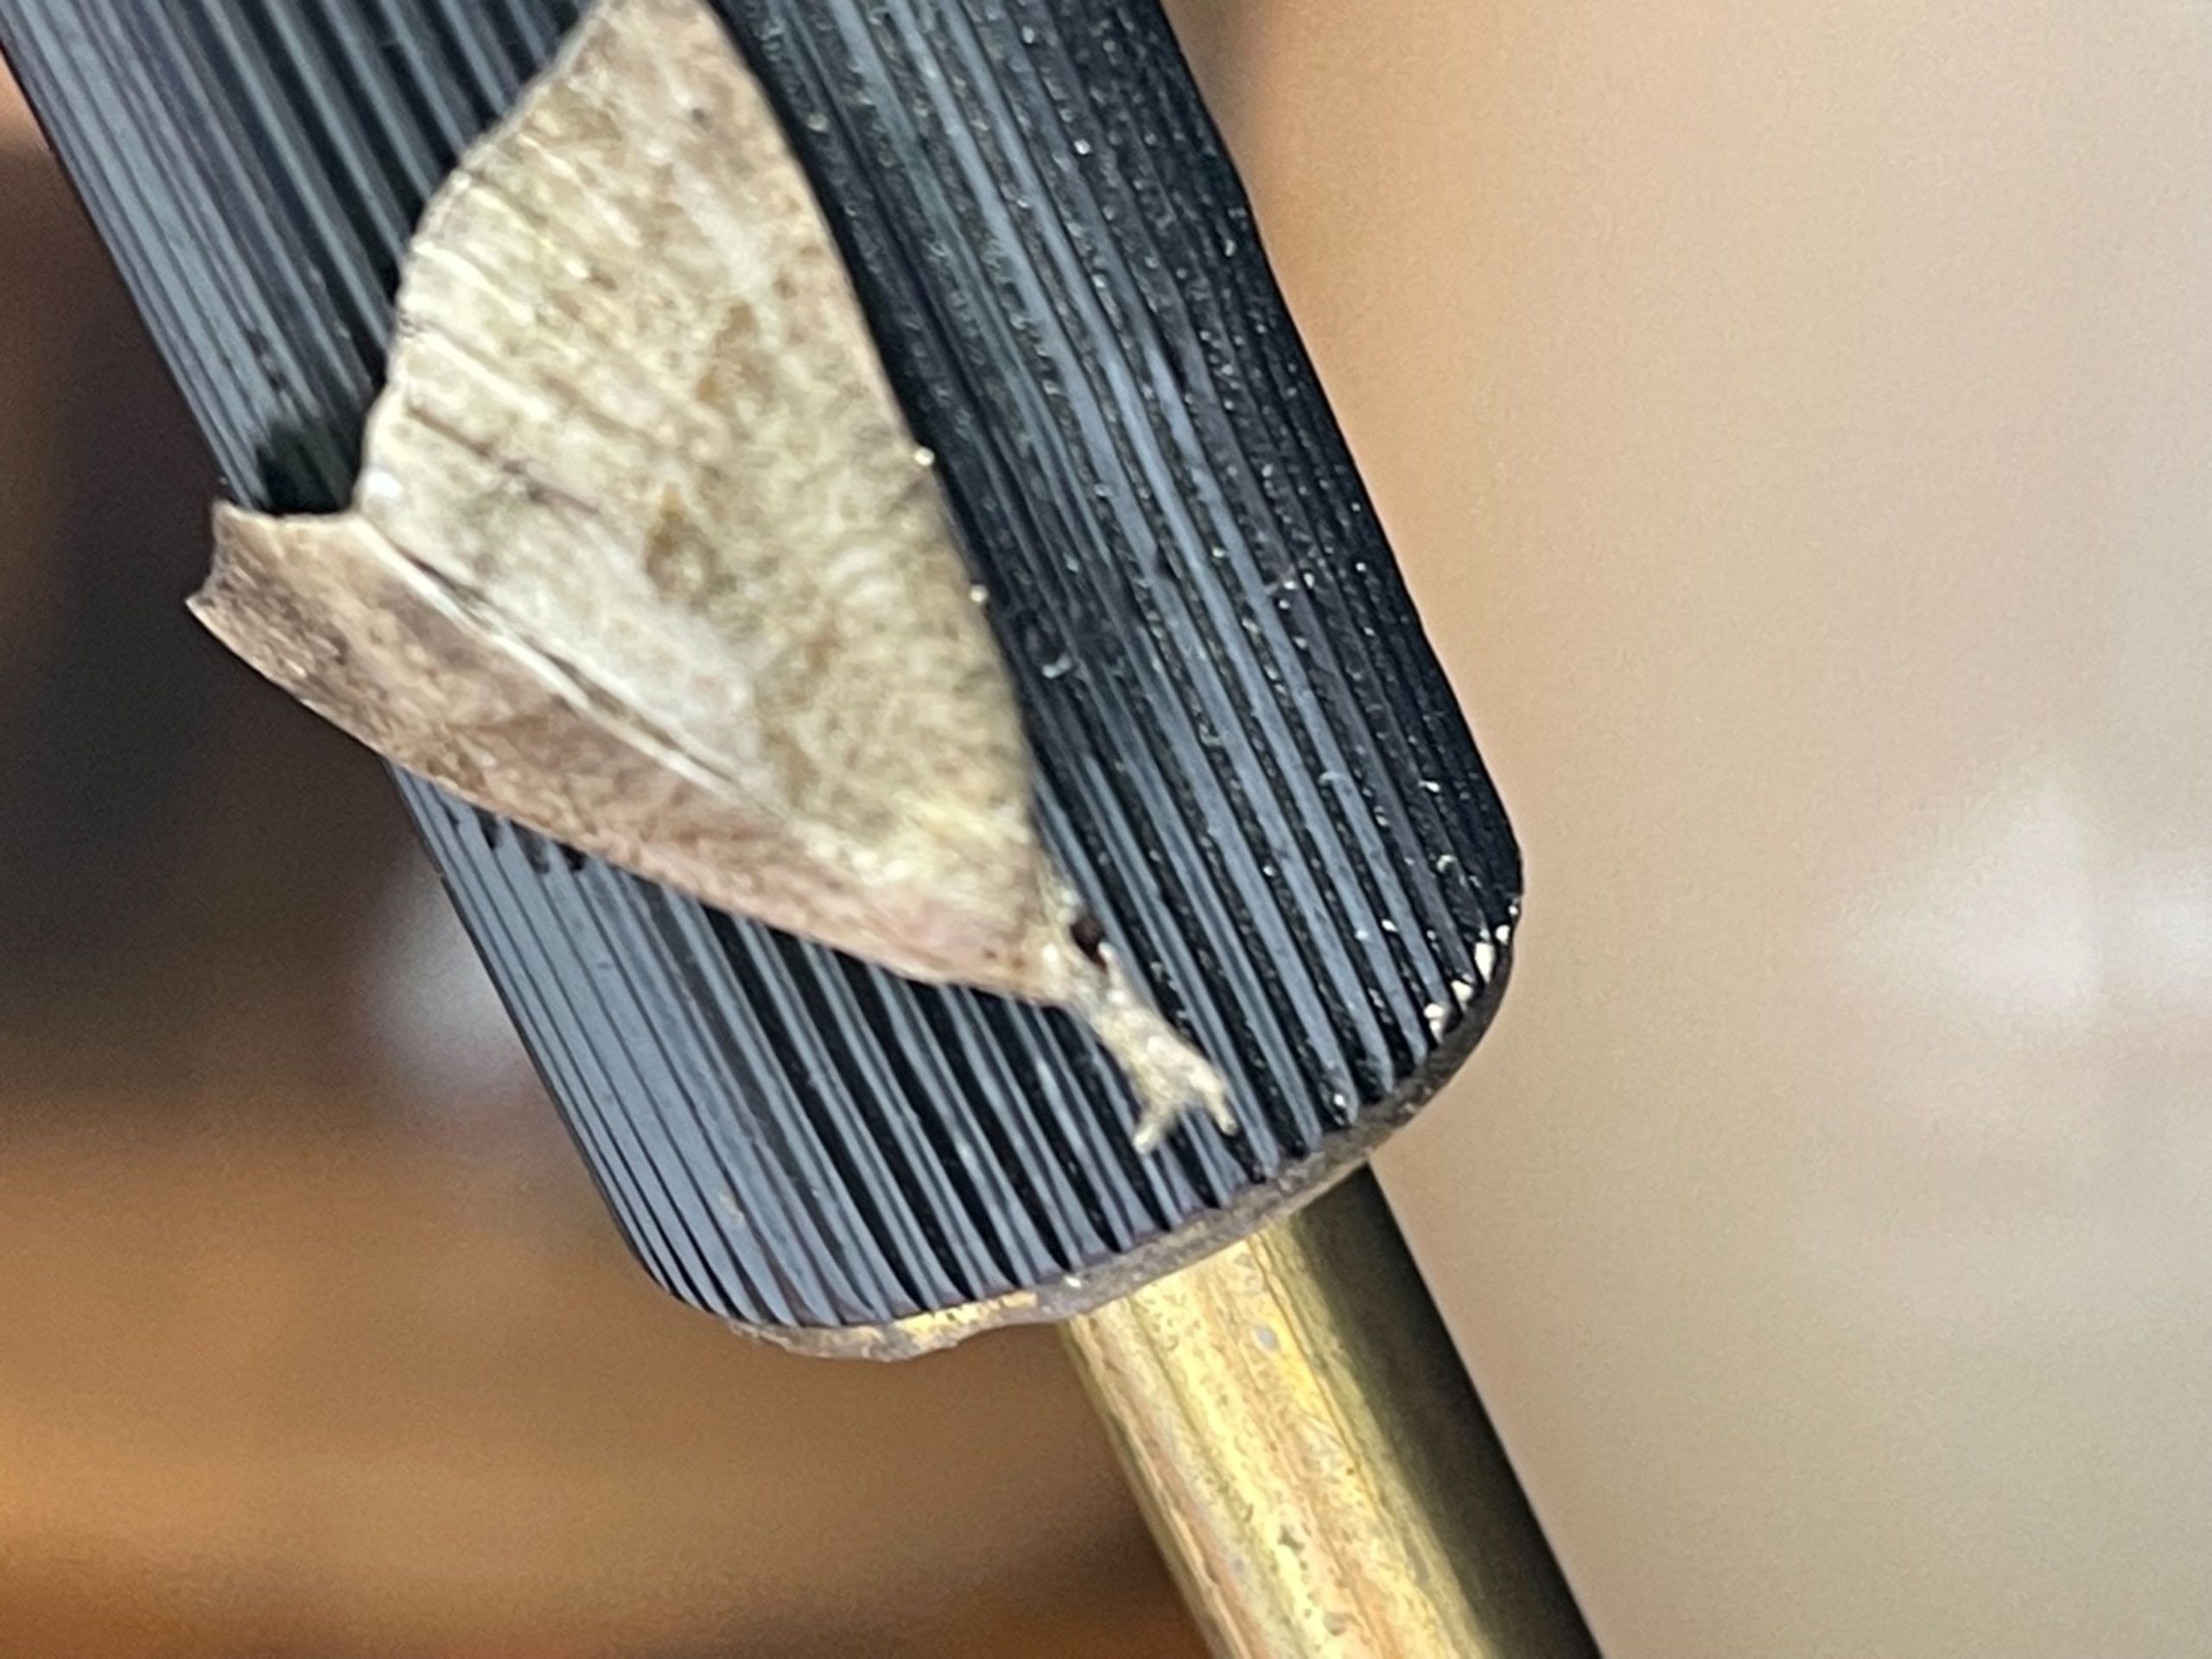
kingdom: Animalia
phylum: Arthropoda
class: Insecta
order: Lepidoptera
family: Erebidae
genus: Hypena
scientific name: Hypena proboscidalis
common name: Snudeugle
